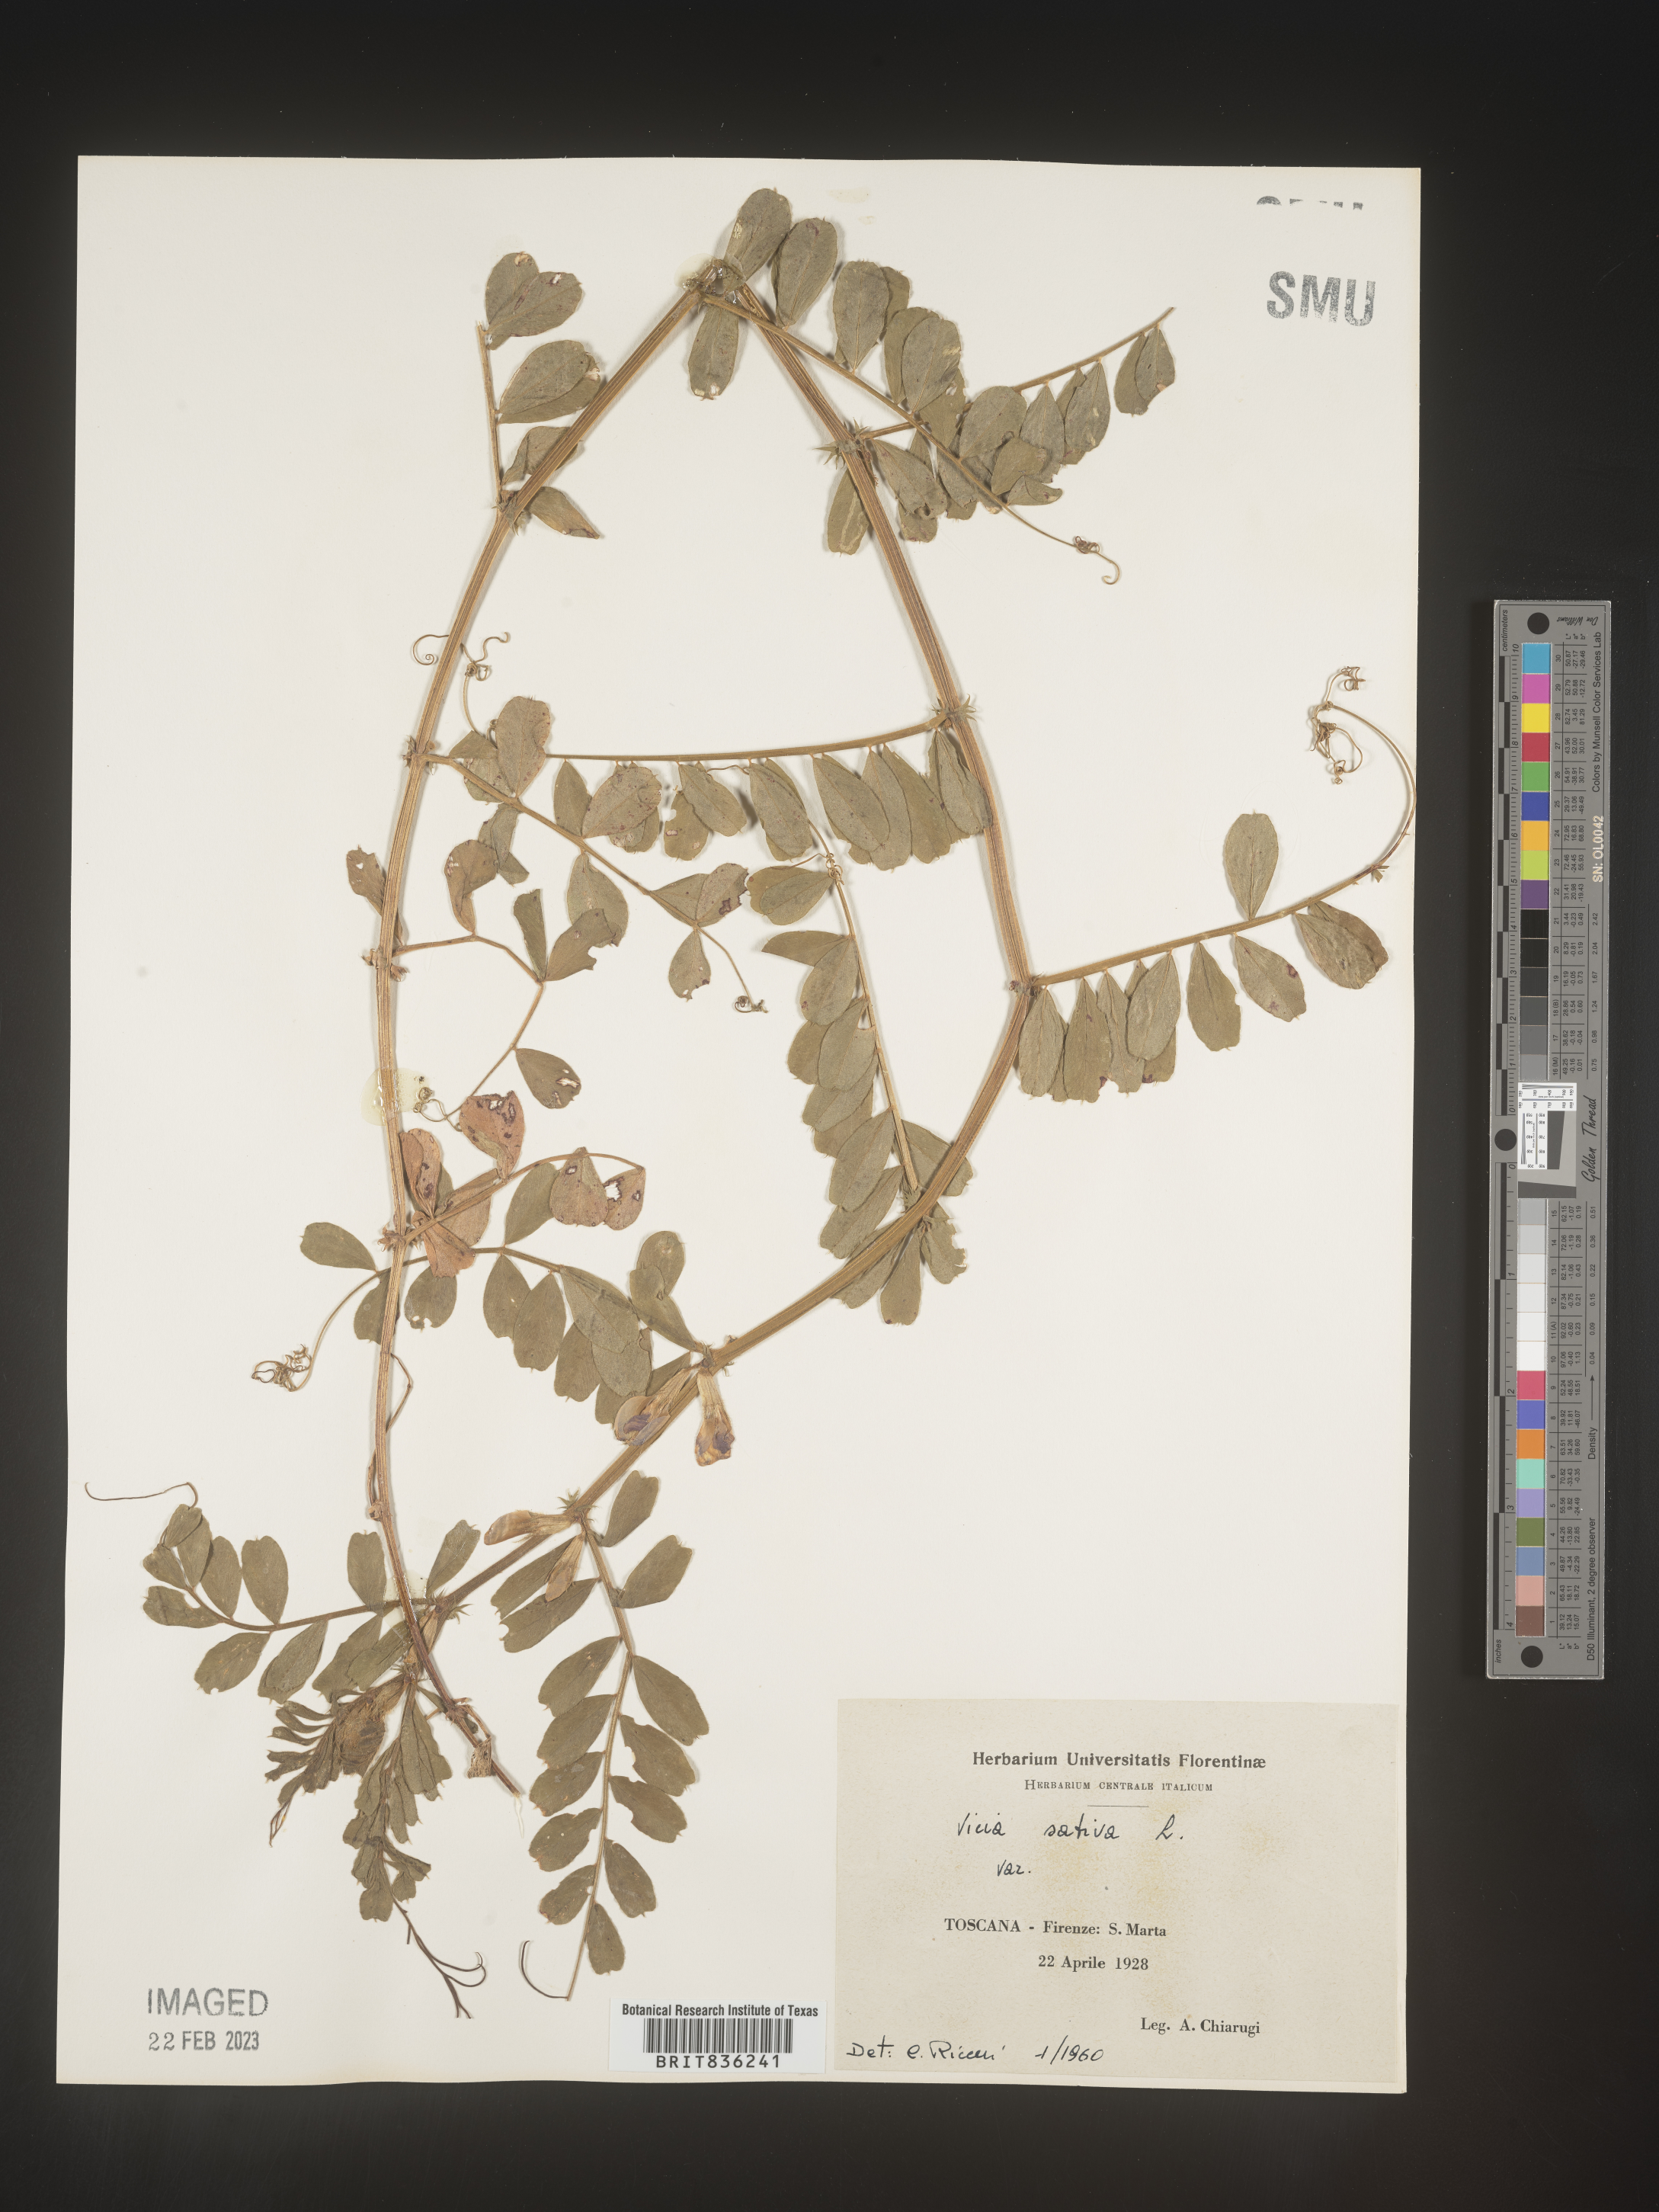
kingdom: Plantae
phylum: Tracheophyta
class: Magnoliopsida
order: Fabales
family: Fabaceae
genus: Vicia
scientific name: Vicia
